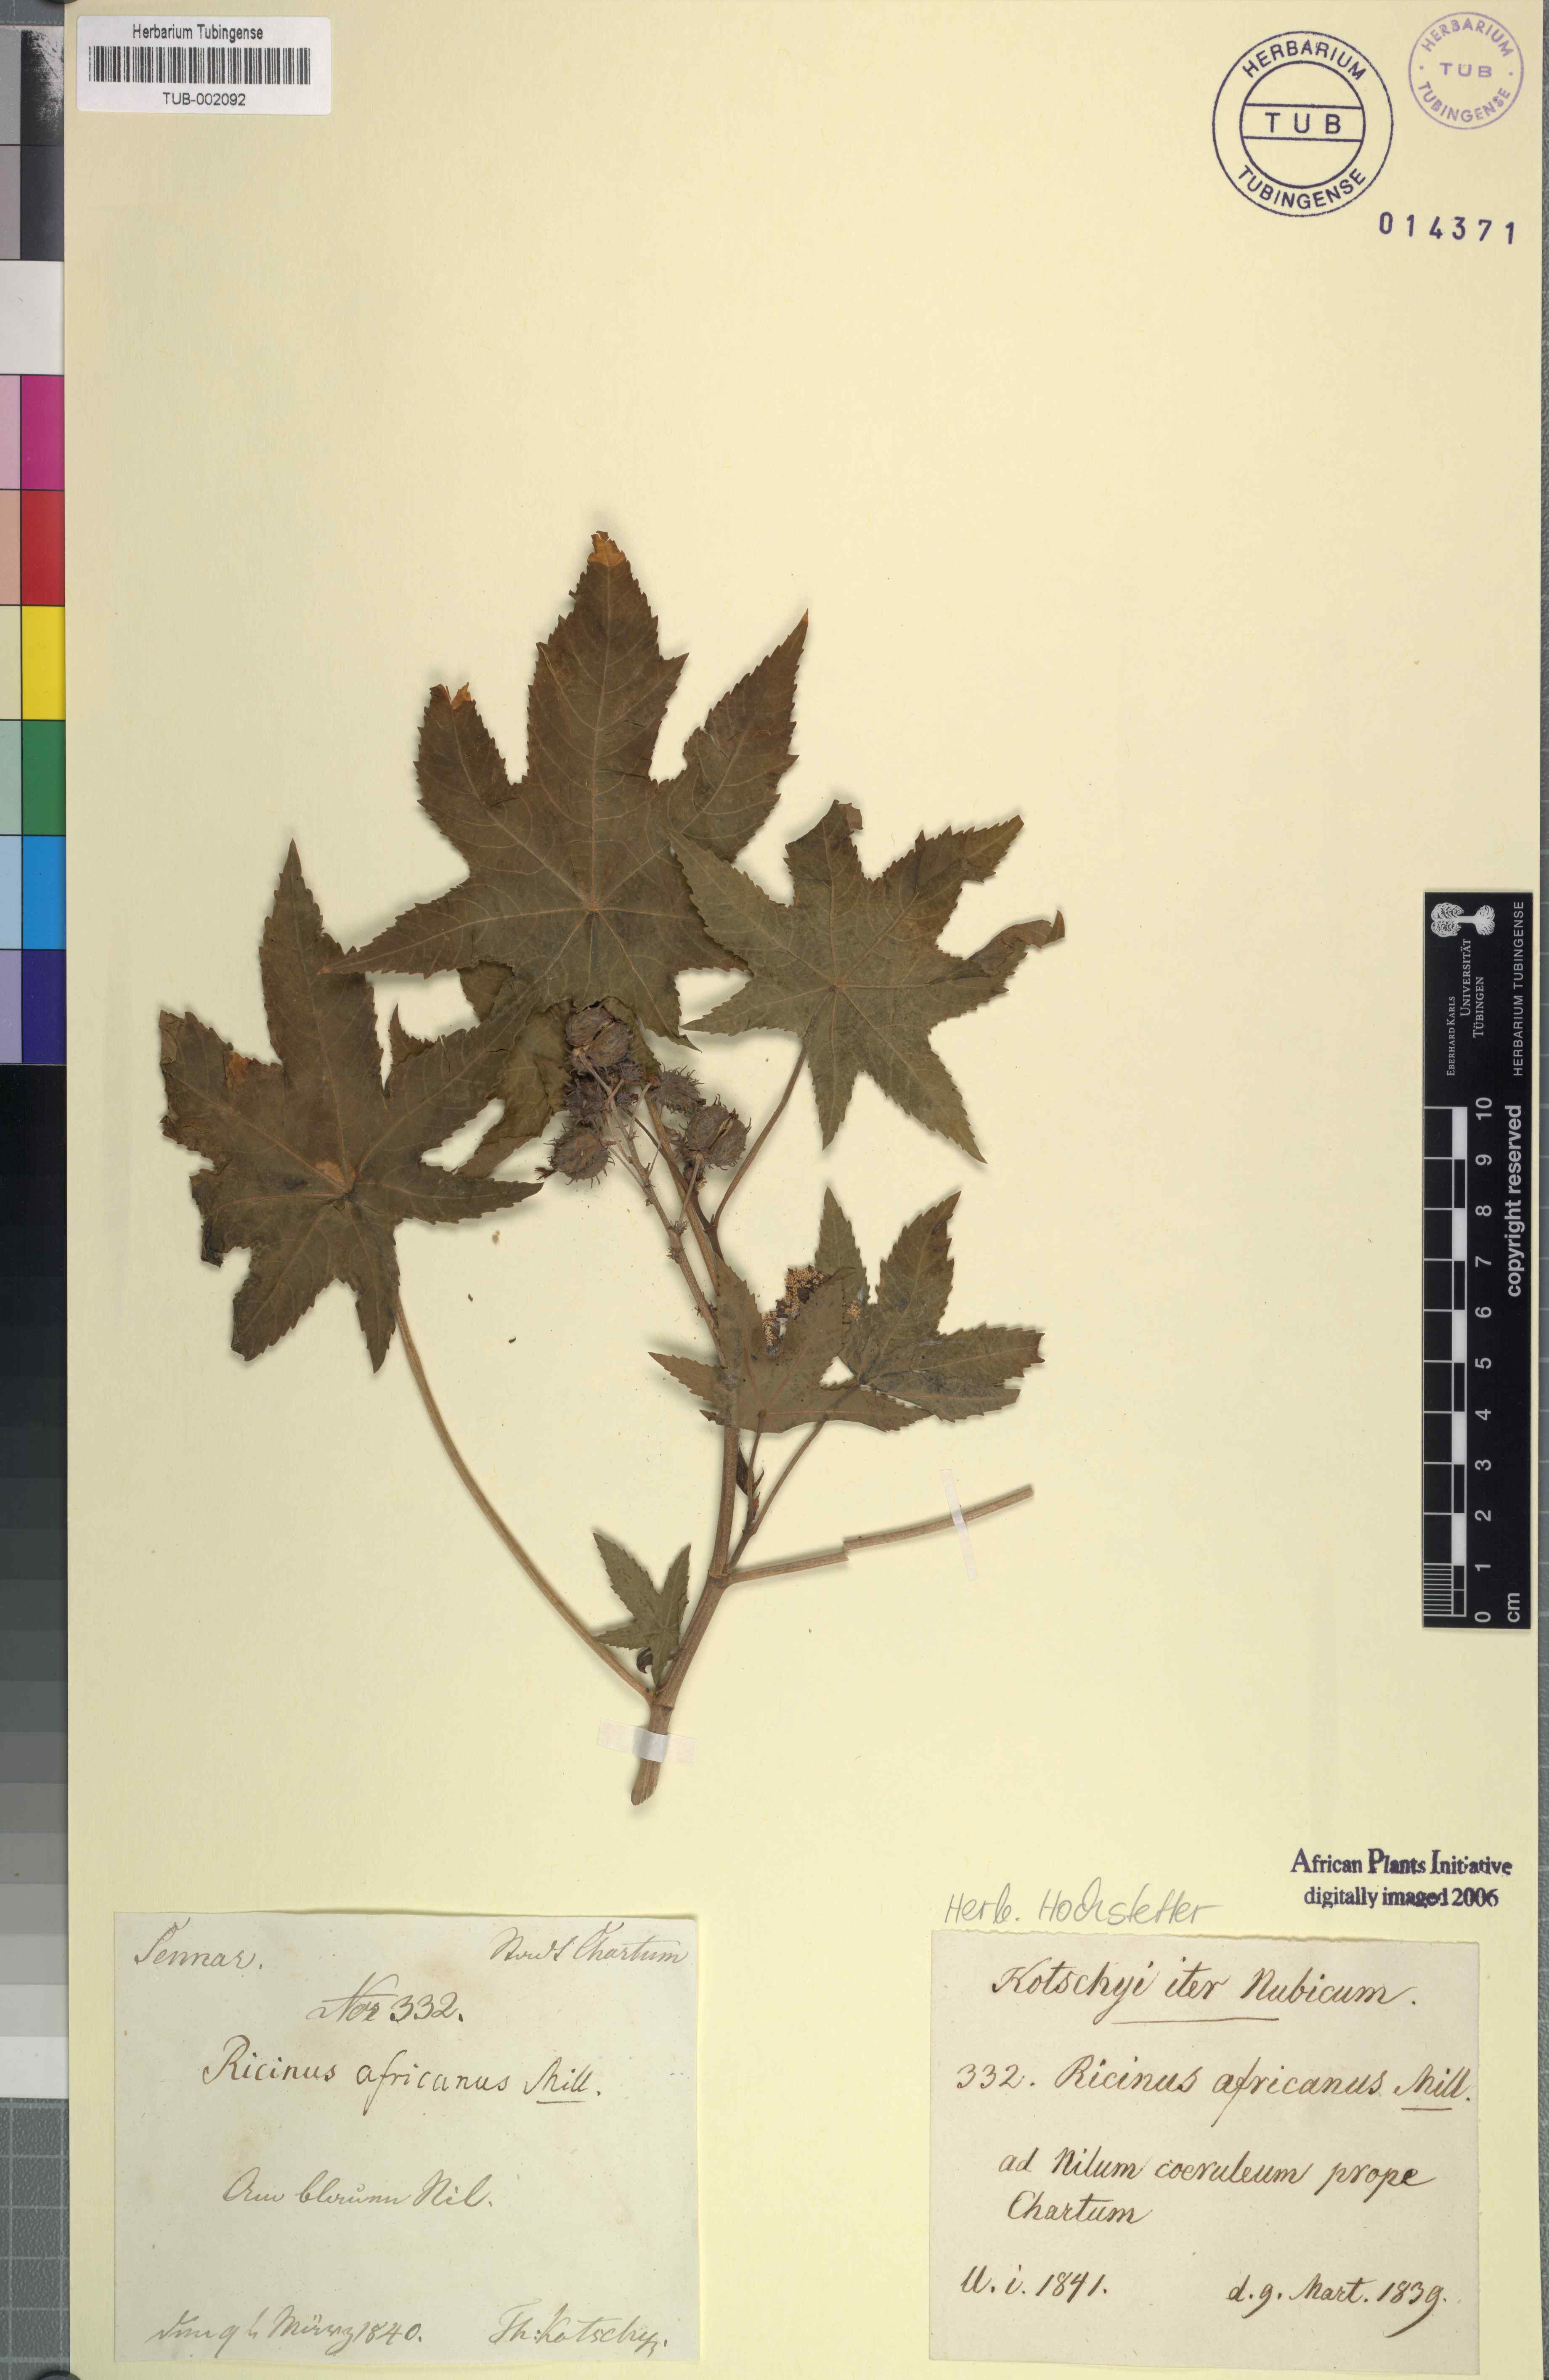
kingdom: Plantae
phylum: Tracheophyta
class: Magnoliopsida
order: Malpighiales
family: Euphorbiaceae
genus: Ricinus
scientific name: Ricinus communis
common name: Castor-oil-plant
